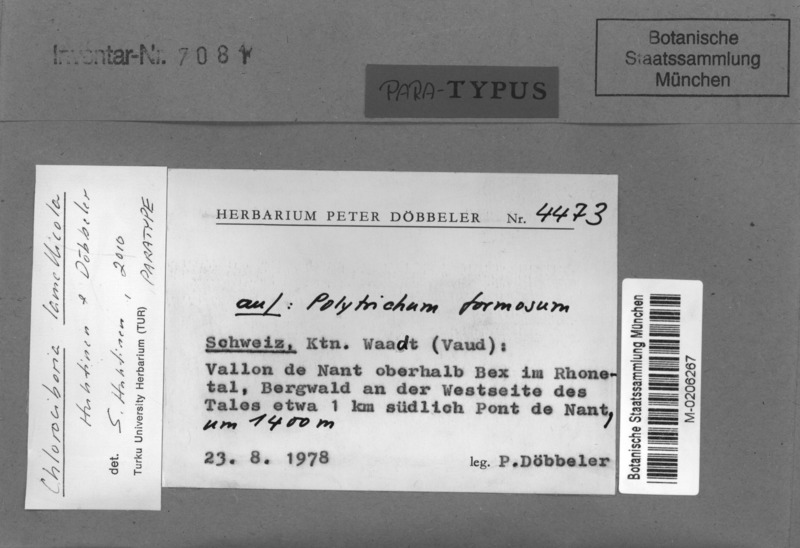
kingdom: Fungi
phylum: Ascomycota
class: Leotiomycetes
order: Helotiales
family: Chlorociboriaceae
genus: Chlorociboria
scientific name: Chlorociboria lamellicola
